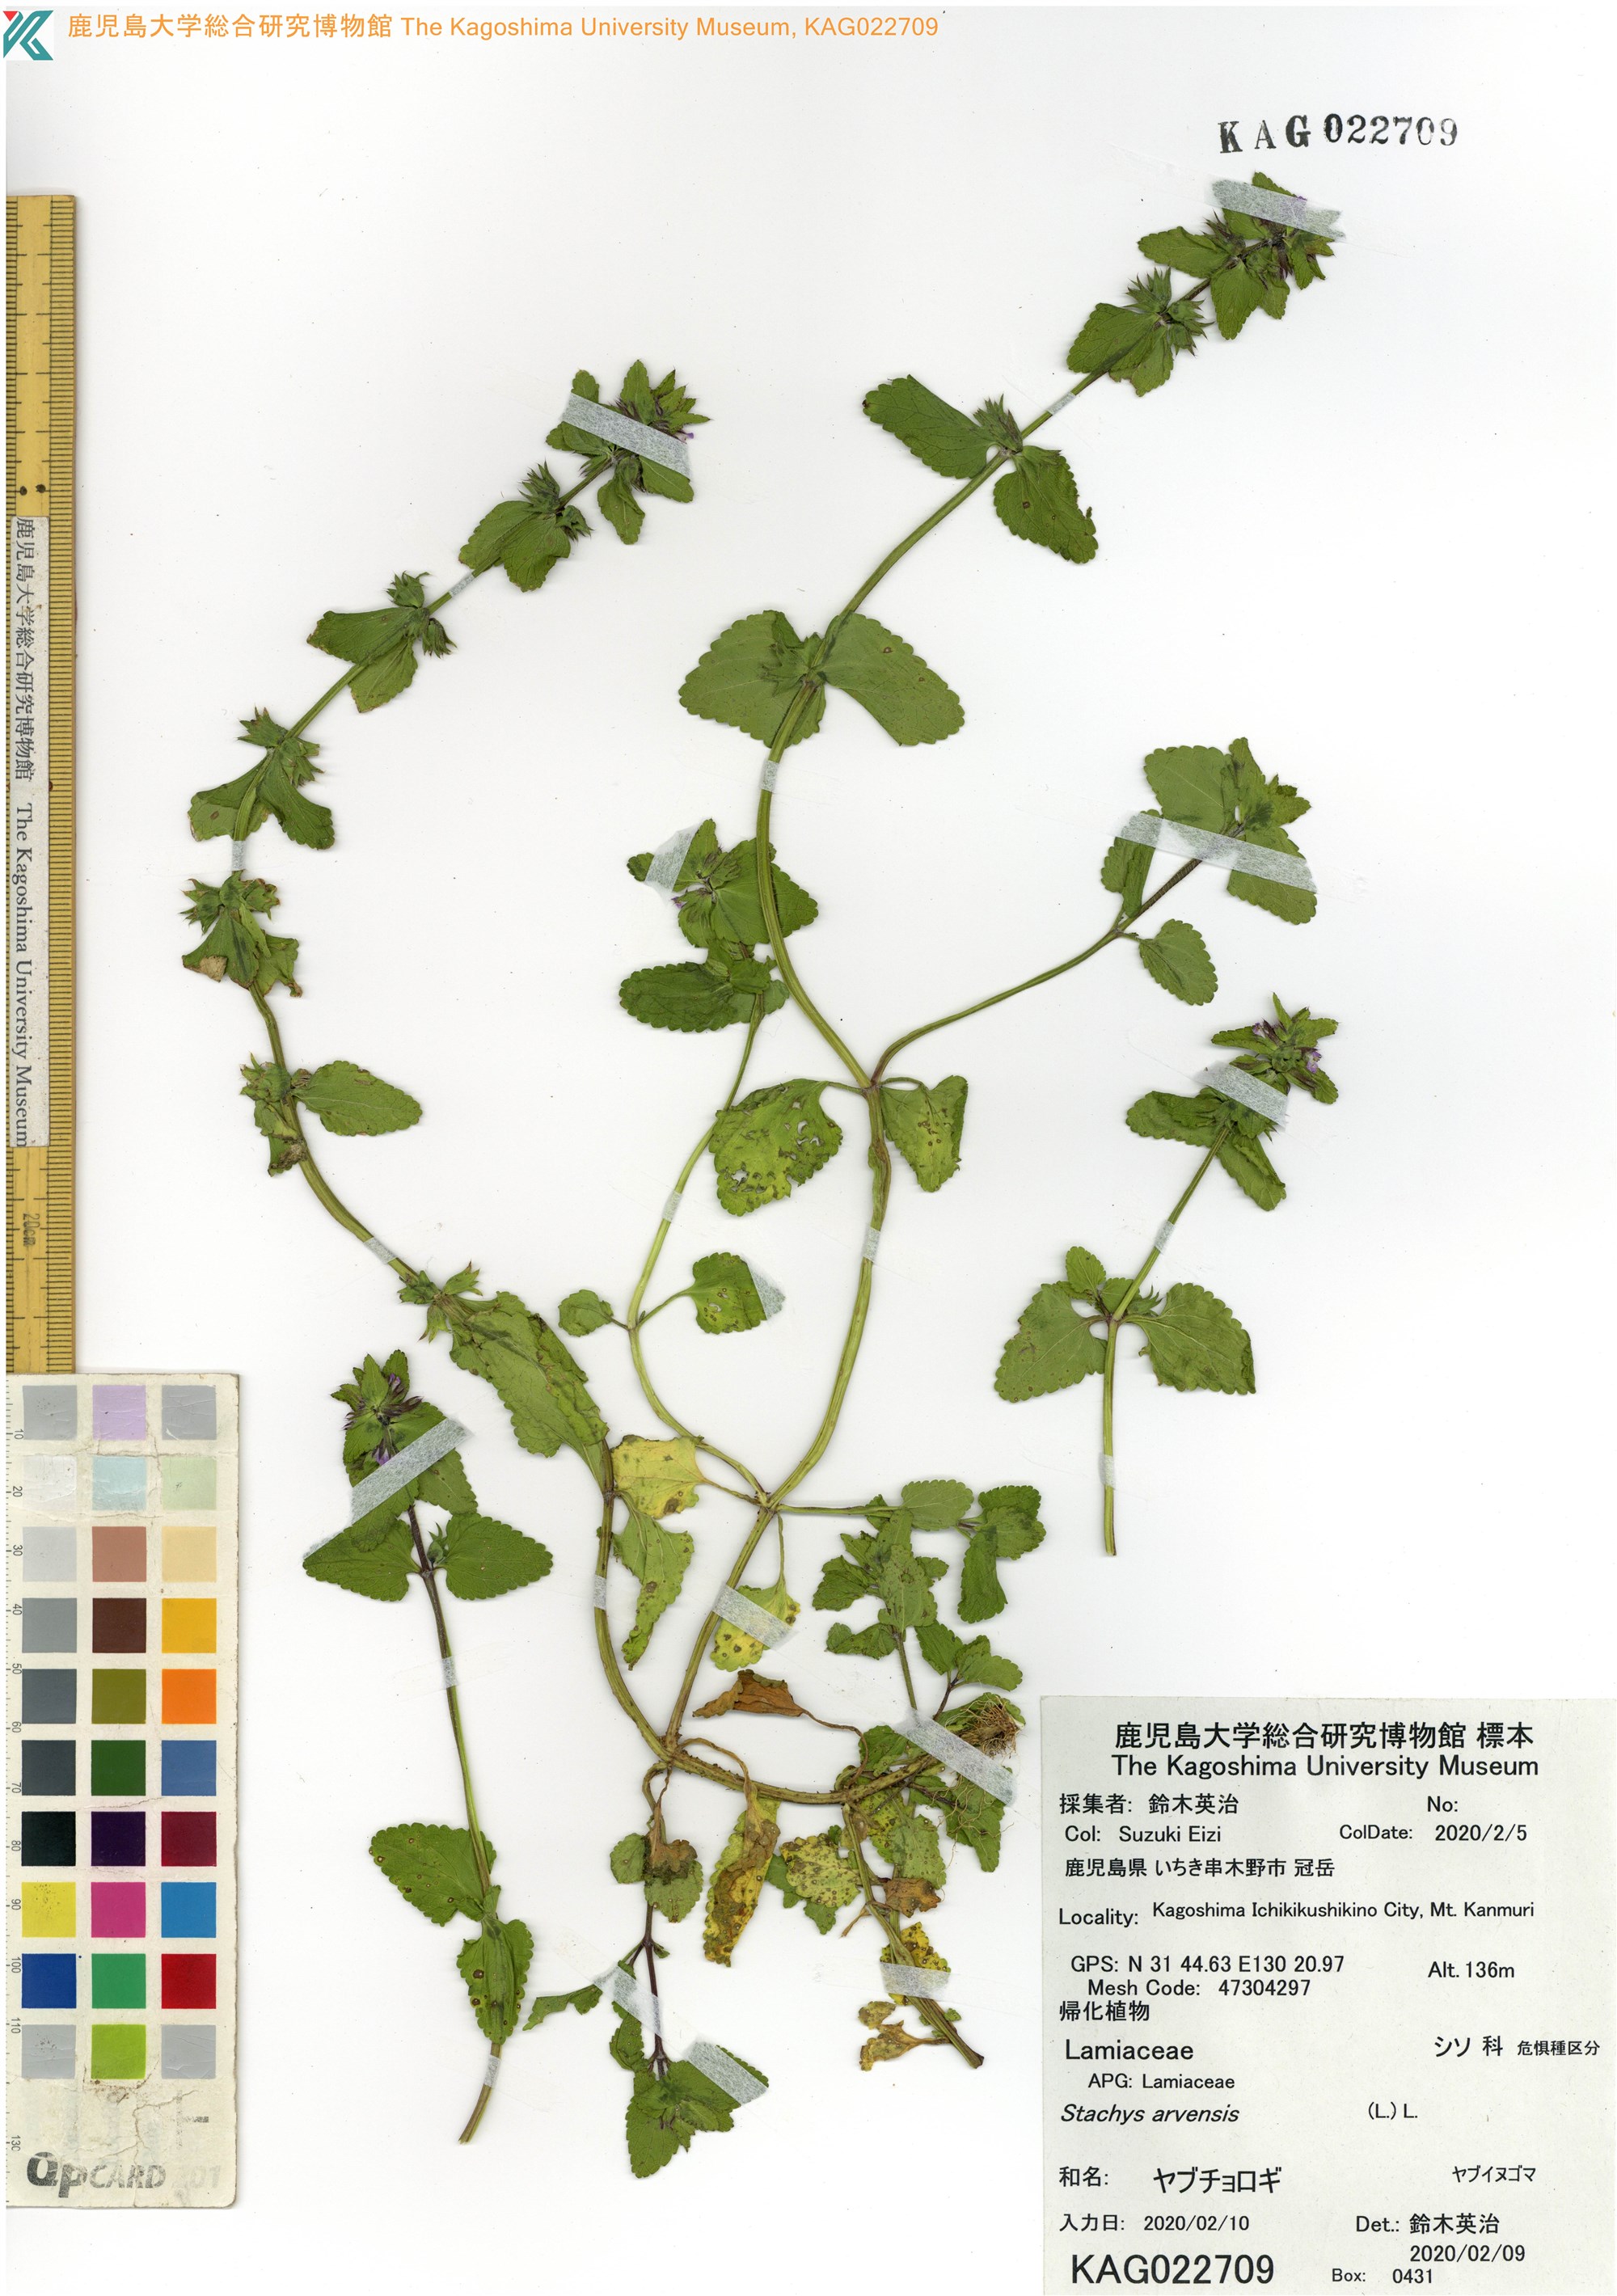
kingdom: Plantae
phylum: Tracheophyta
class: Magnoliopsida
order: Lamiales
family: Lamiaceae
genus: Stachys
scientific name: Stachys arvensis
